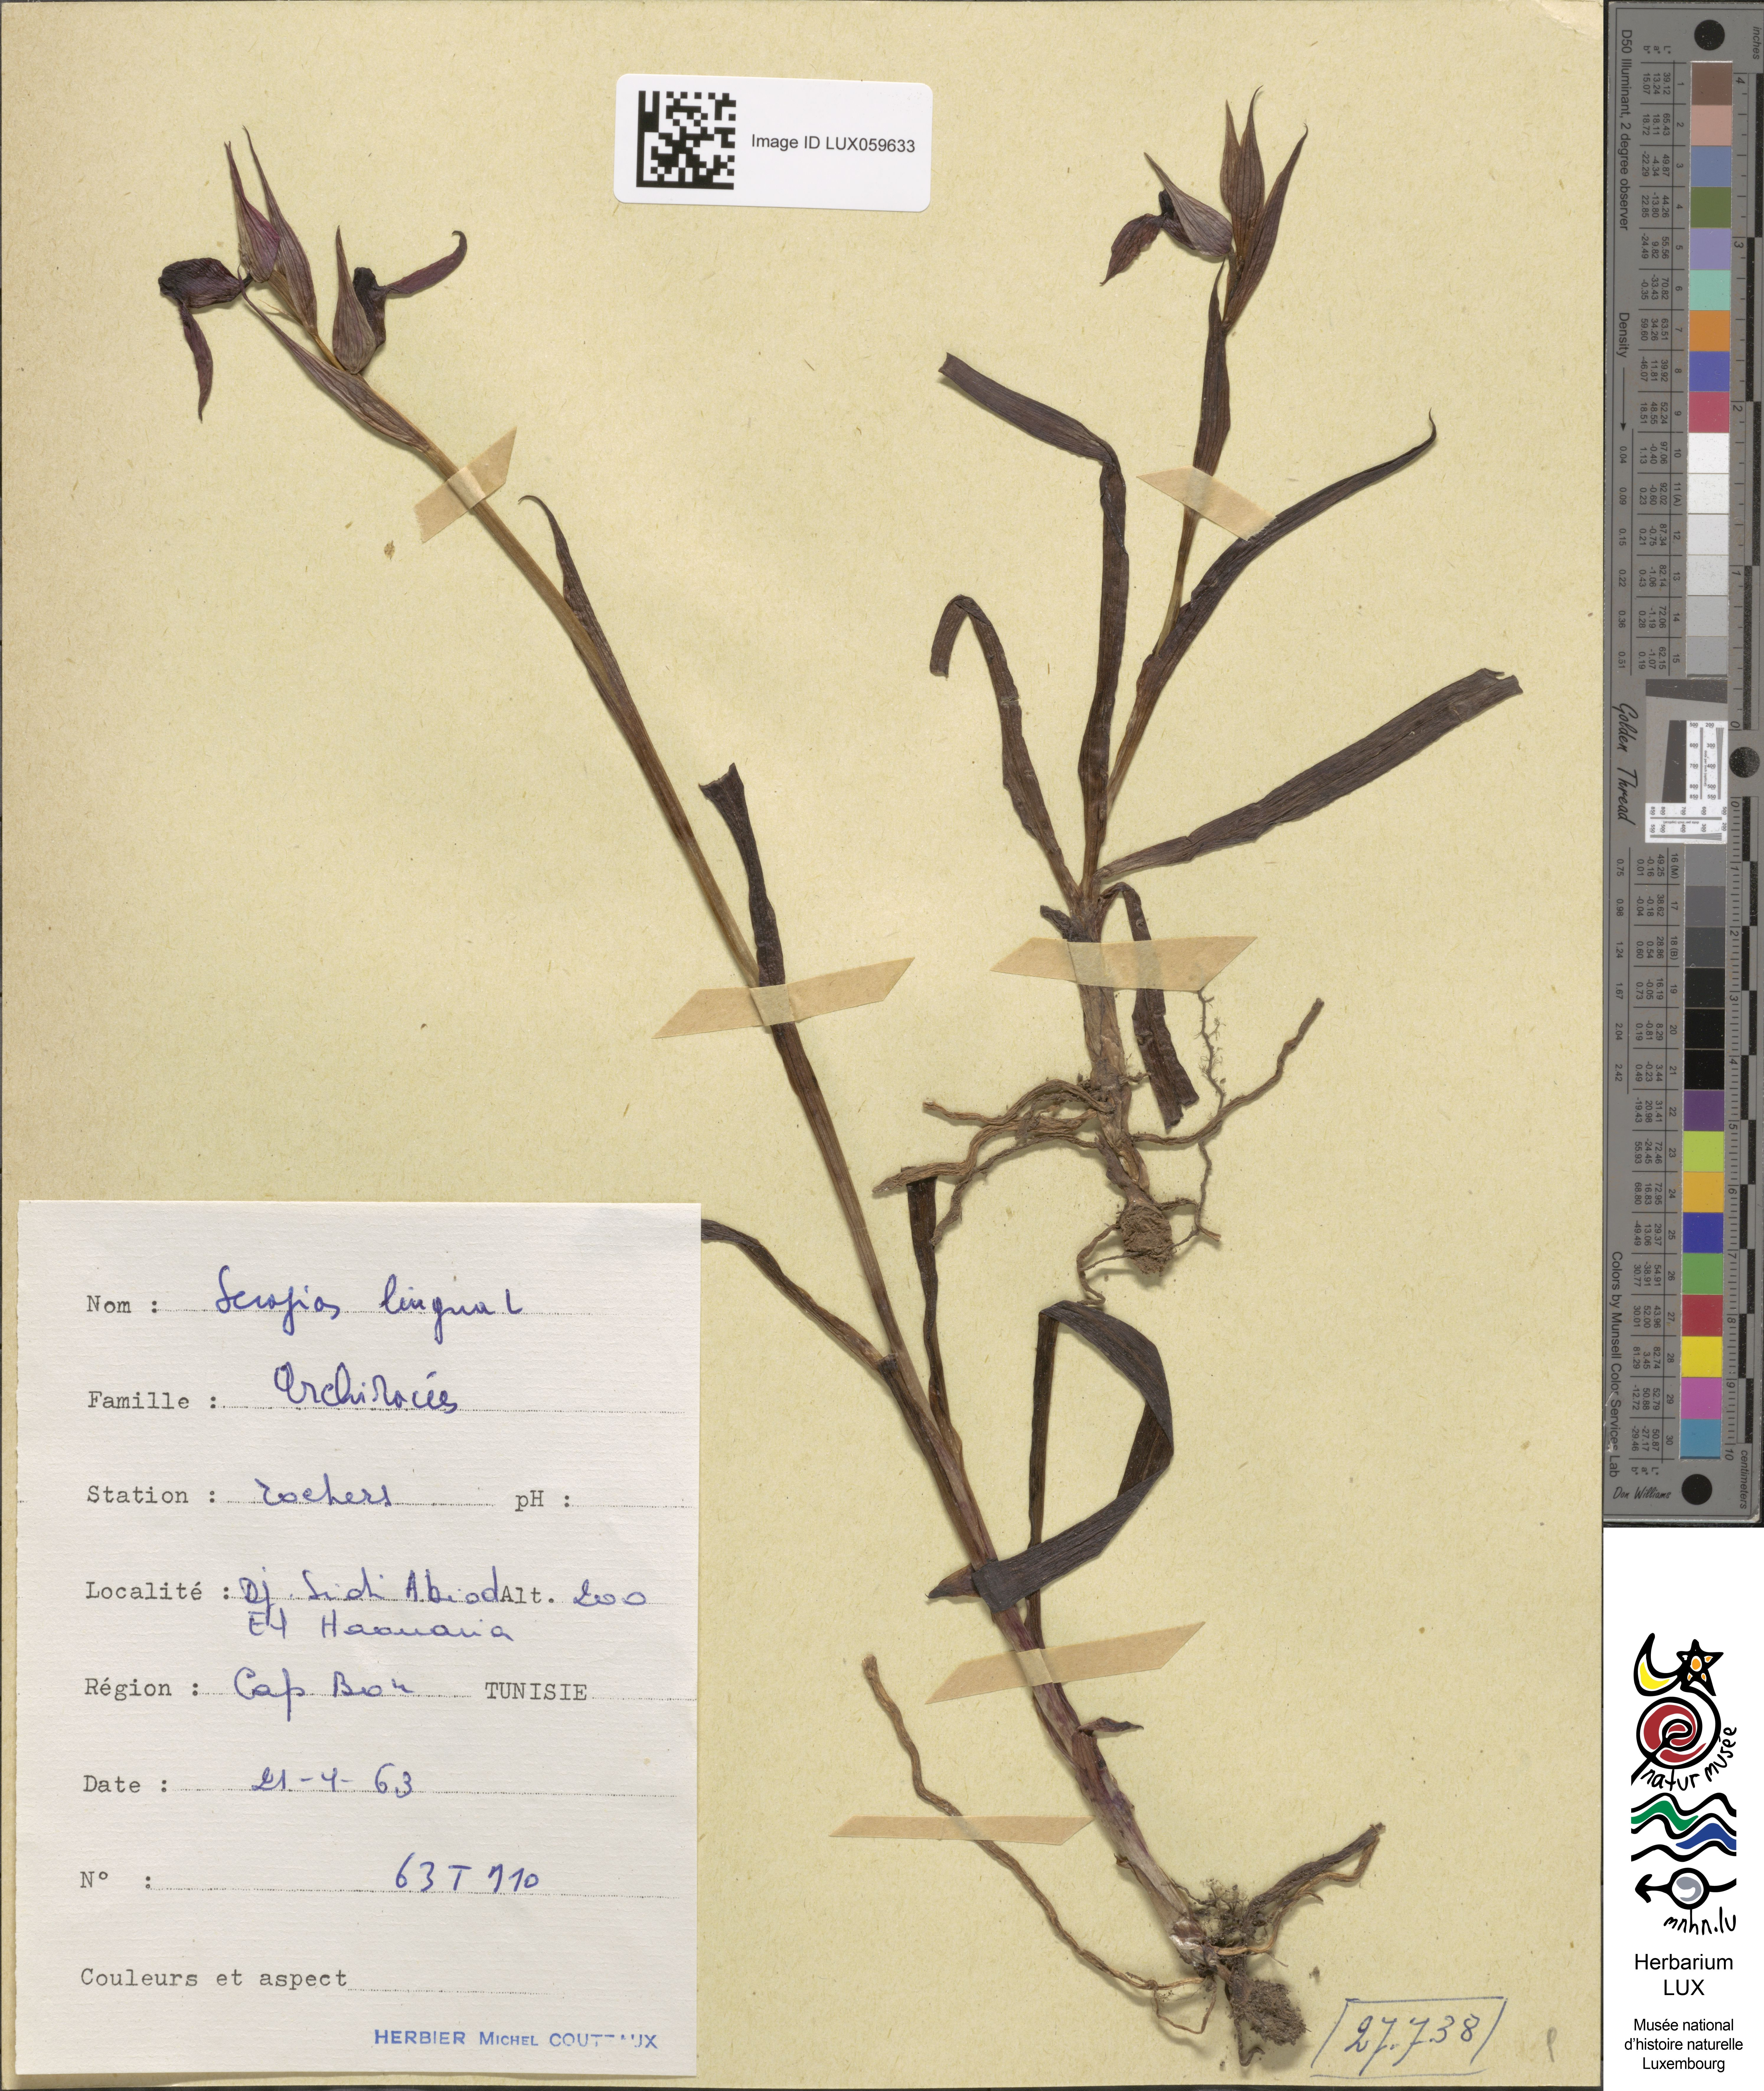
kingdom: Plantae
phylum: Tracheophyta
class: Liliopsida
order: Asparagales
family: Orchidaceae
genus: Serapias
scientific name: Serapias lingua
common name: Tongue-orchid
